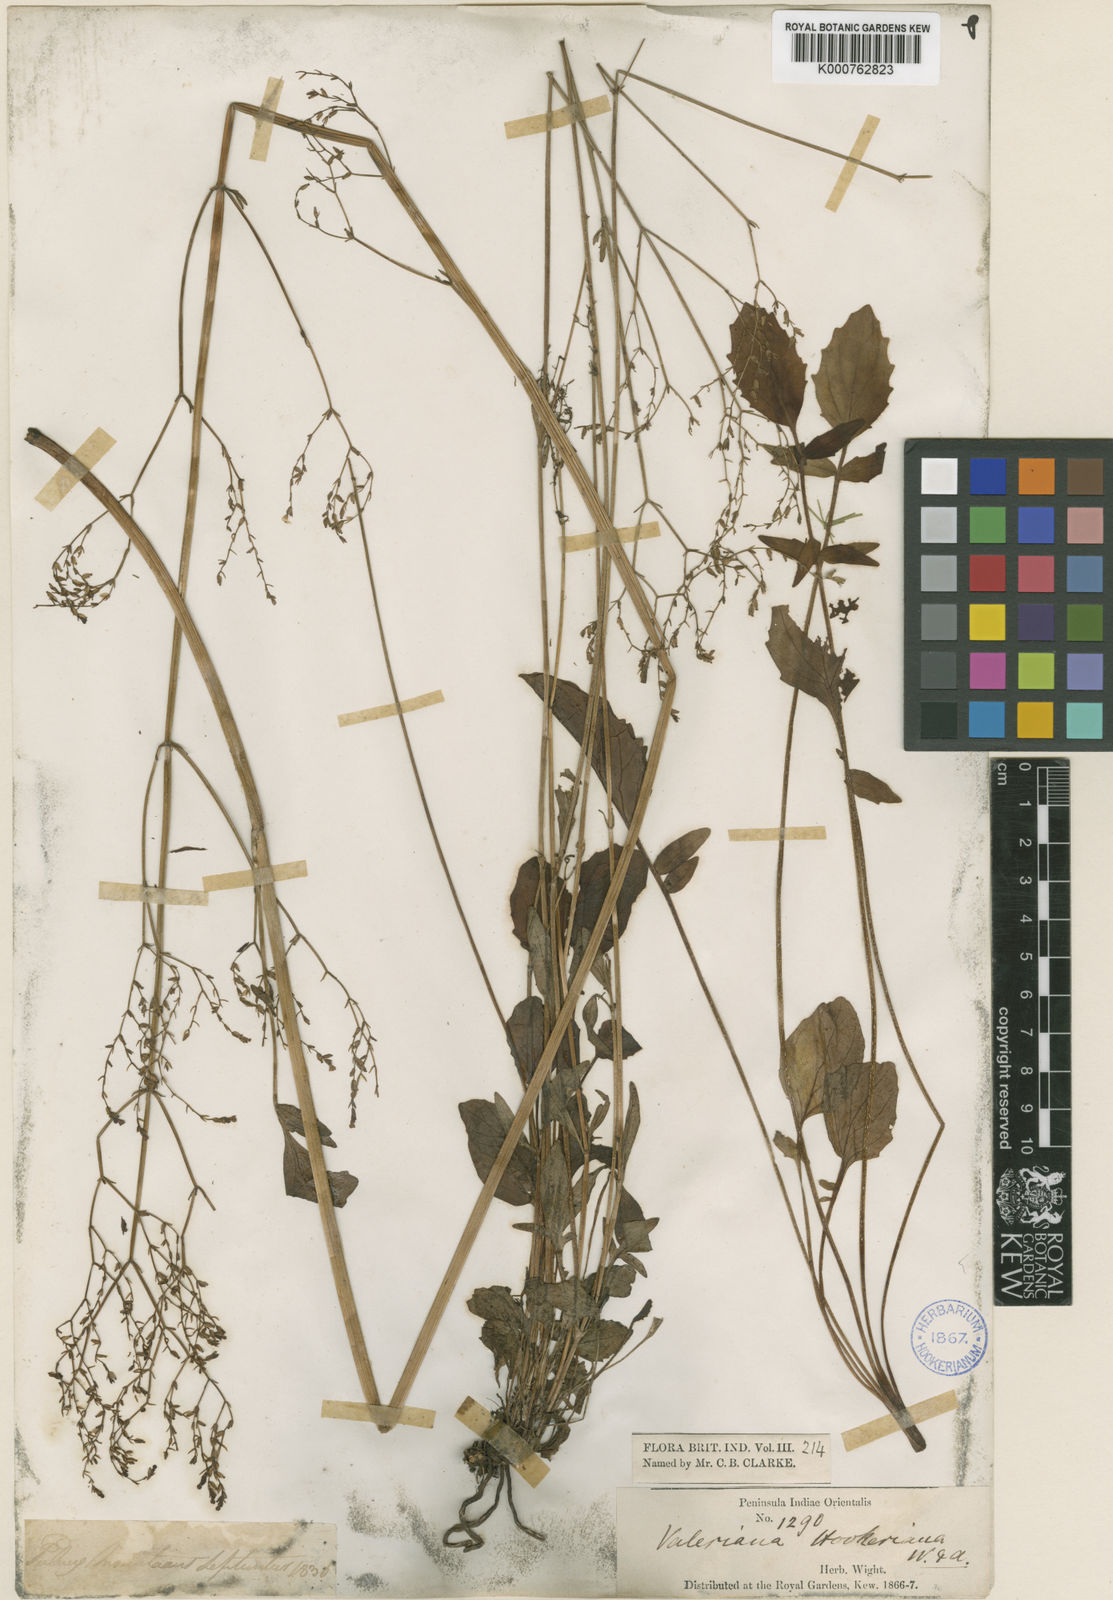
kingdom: Plantae
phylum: Tracheophyta
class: Magnoliopsida
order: Dipsacales
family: Caprifoliaceae
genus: Valeriana
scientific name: Valeriana hardwickei
